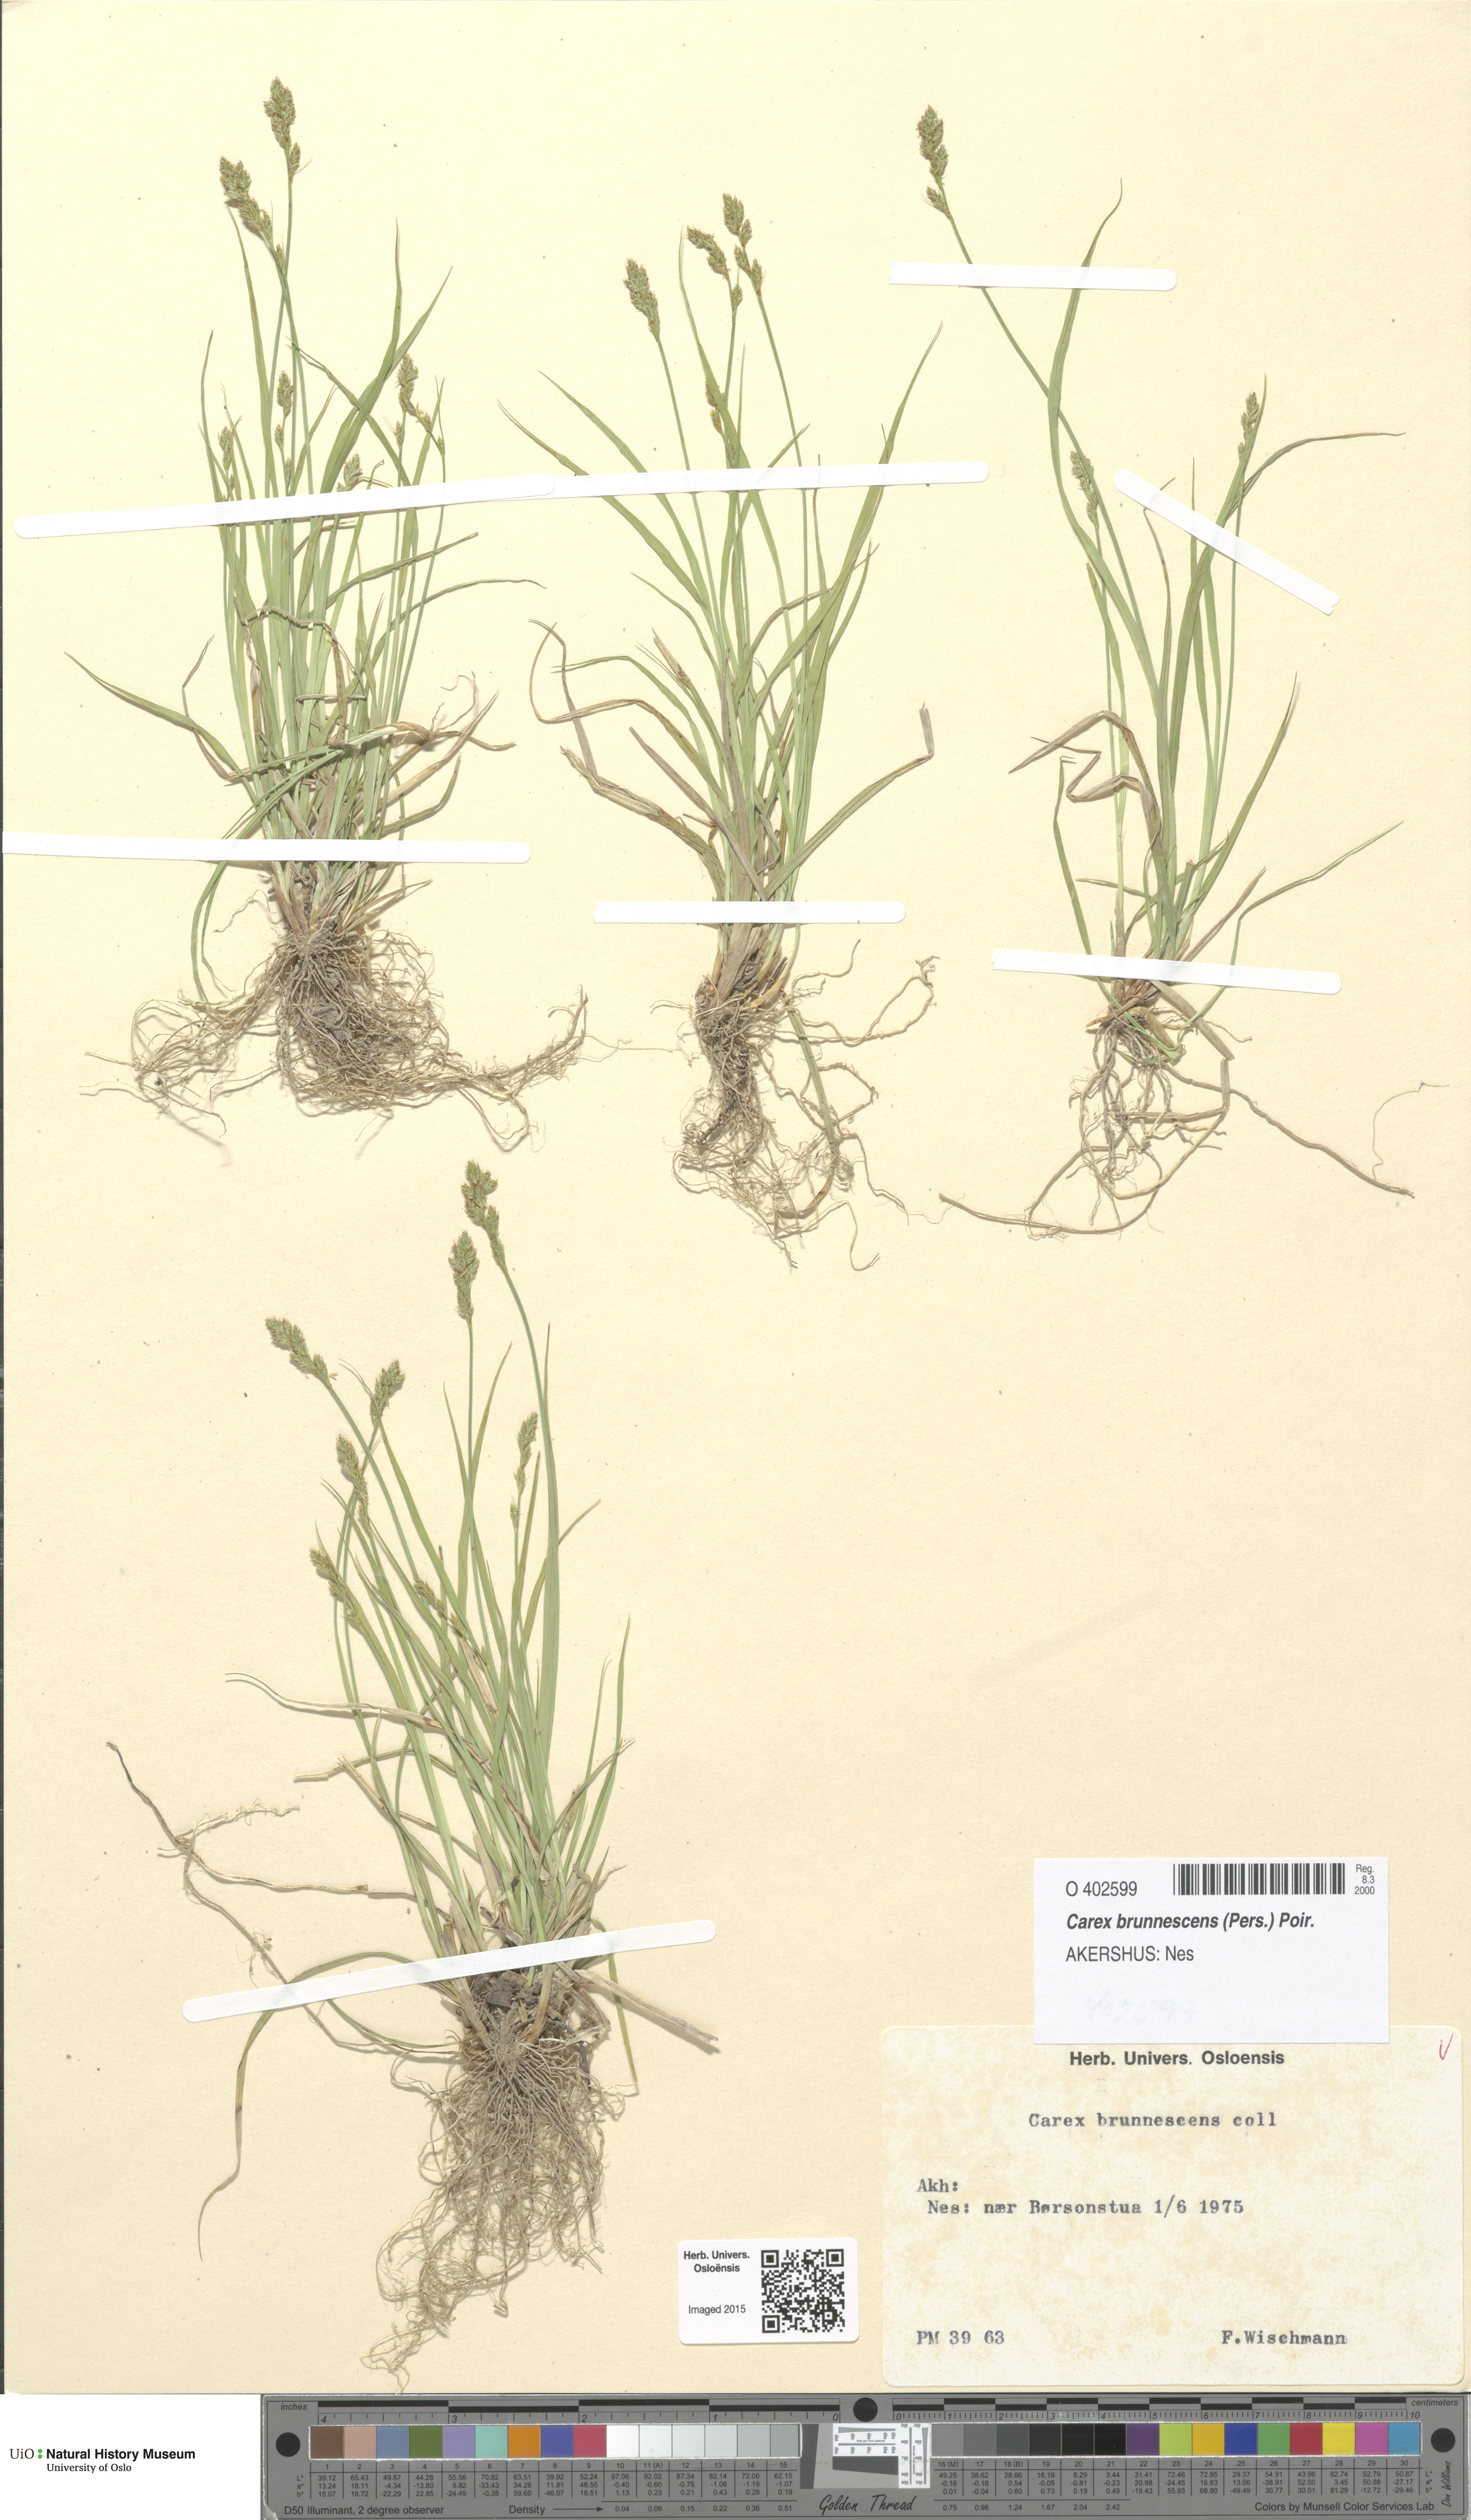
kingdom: Plantae
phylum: Tracheophyta
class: Liliopsida
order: Poales
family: Cyperaceae
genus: Carex
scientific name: Carex brunnescens
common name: Brown sedge
